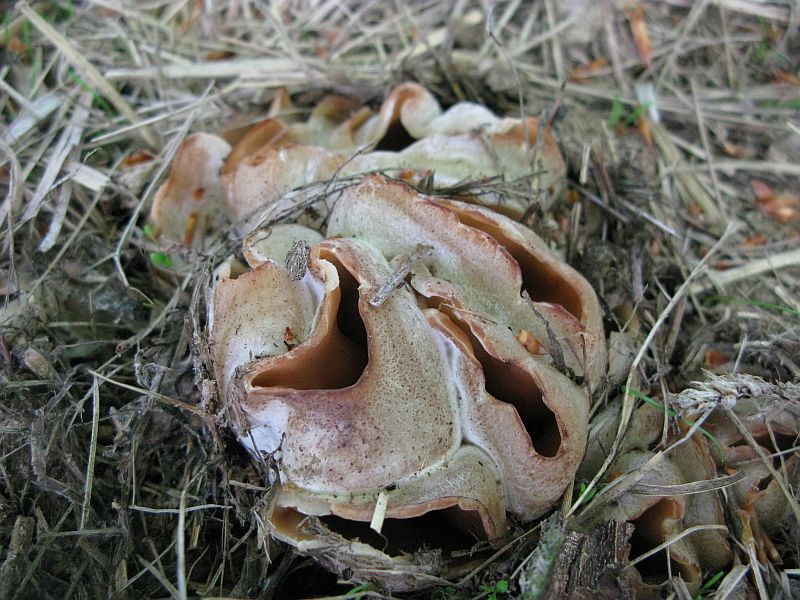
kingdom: Fungi
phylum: Ascomycota
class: Pezizomycetes
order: Pezizales
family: Pezizaceae
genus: Peziza
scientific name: Peziza vesiculosa
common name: blære-bægersvamp
